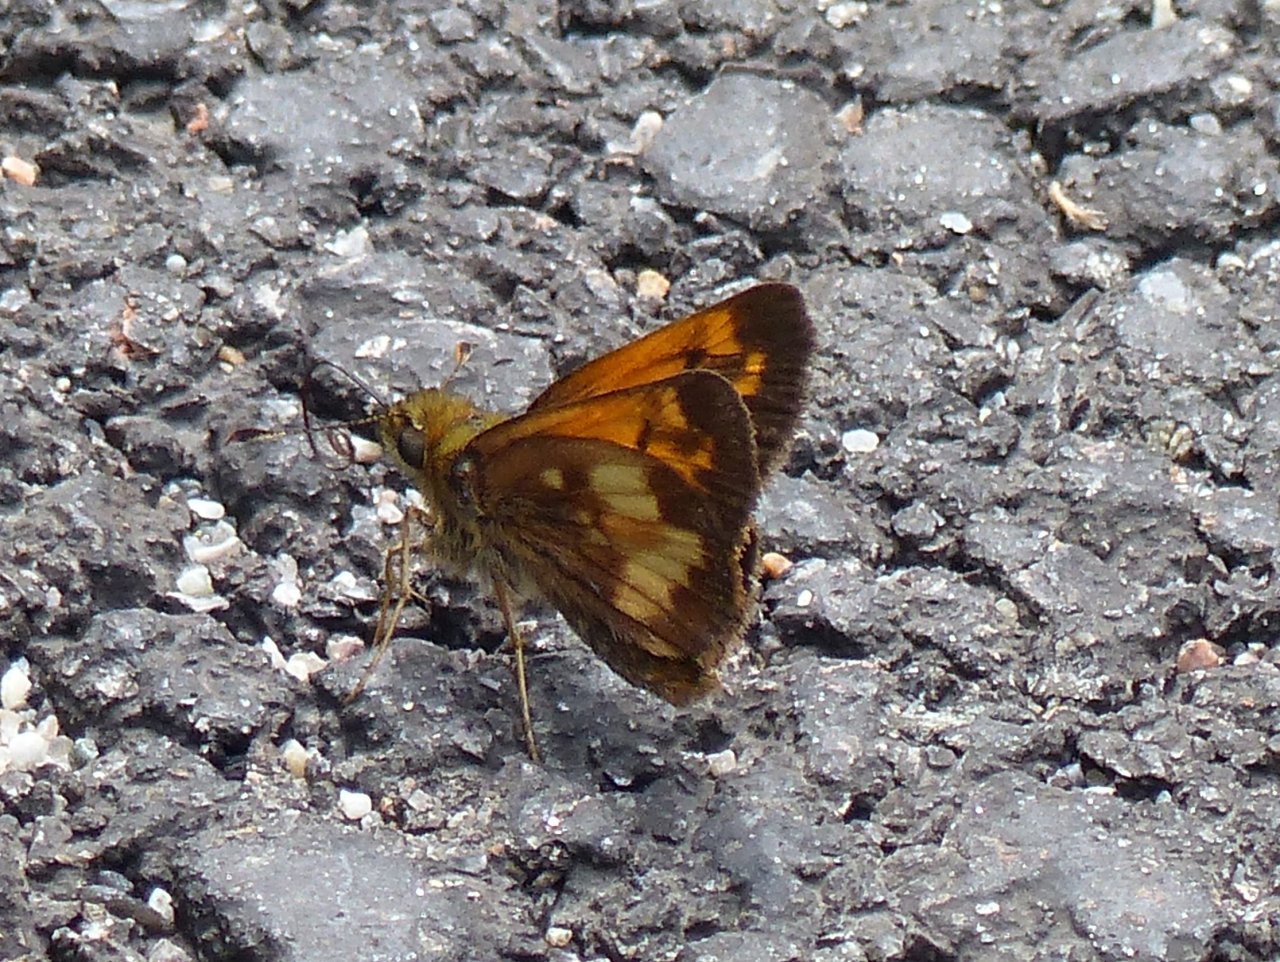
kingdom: Animalia
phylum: Arthropoda
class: Insecta
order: Lepidoptera
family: Hesperiidae
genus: Lon
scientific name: Lon hobomok
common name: Hobomok Skipper
